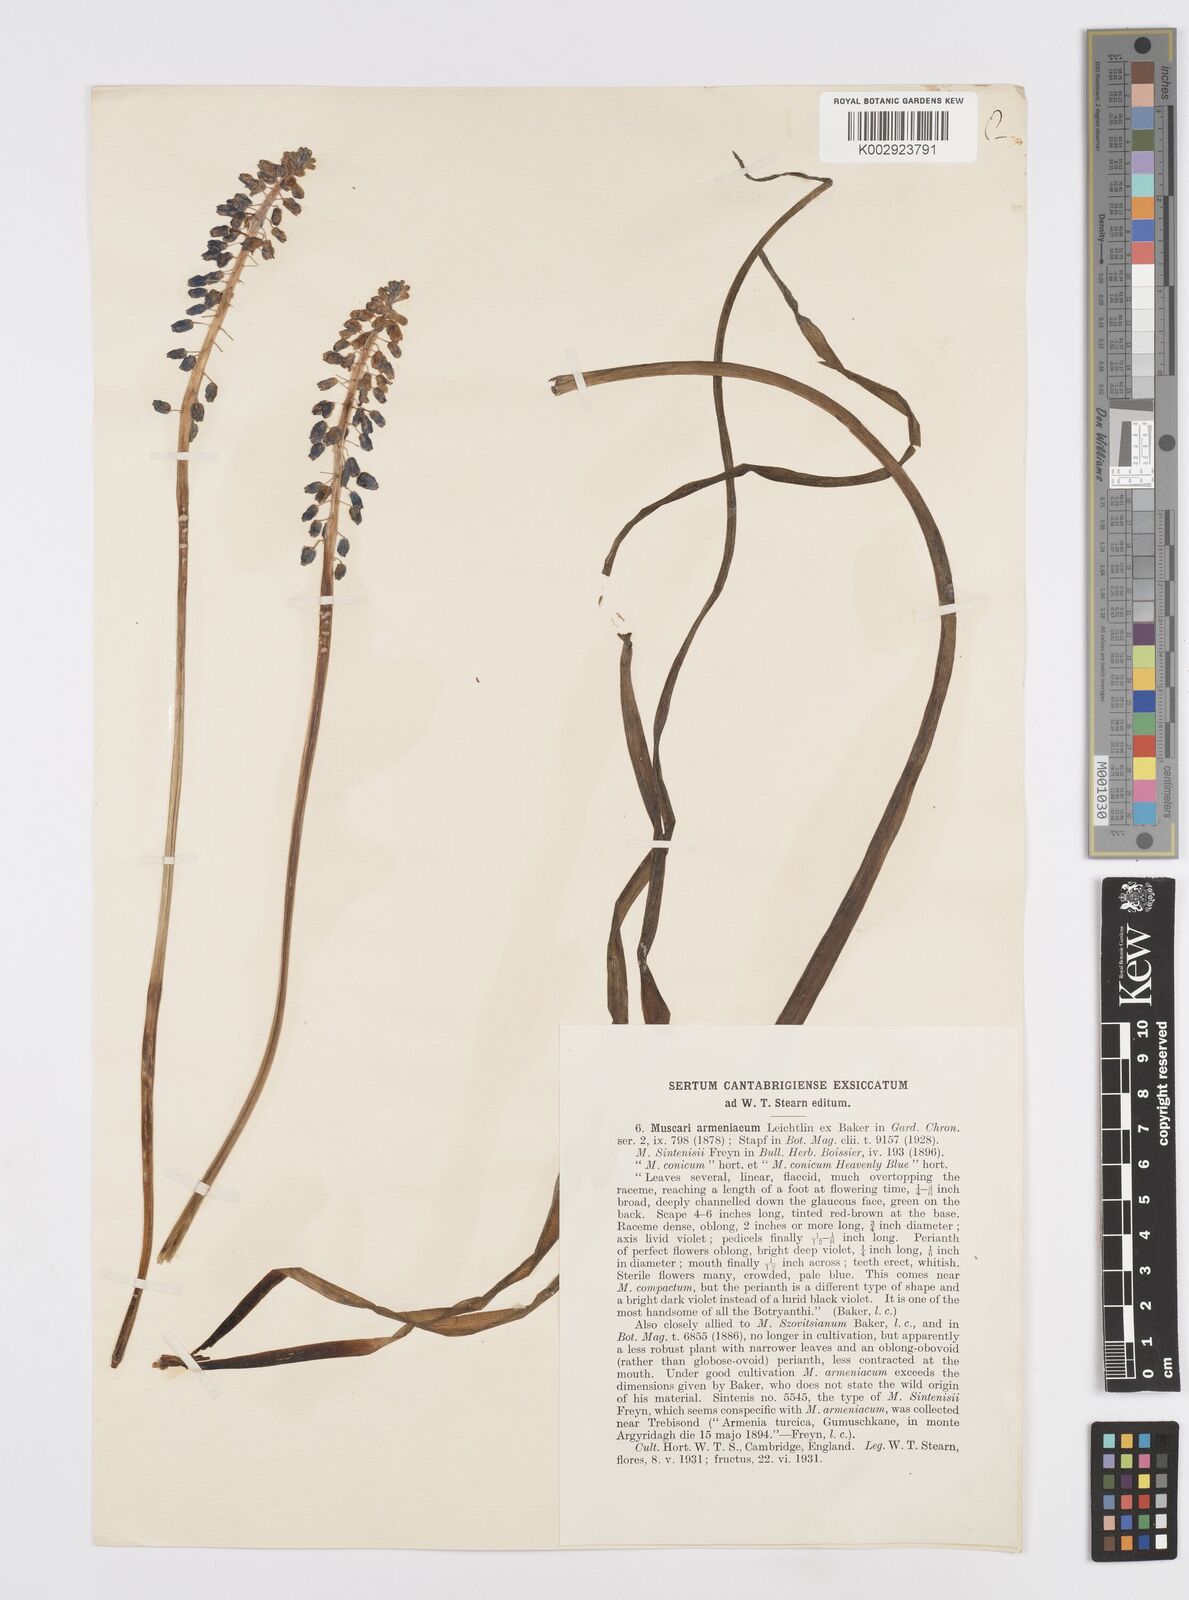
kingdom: Plantae
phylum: Tracheophyta
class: Liliopsida
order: Asparagales
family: Asparagaceae
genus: Muscari
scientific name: Muscari
